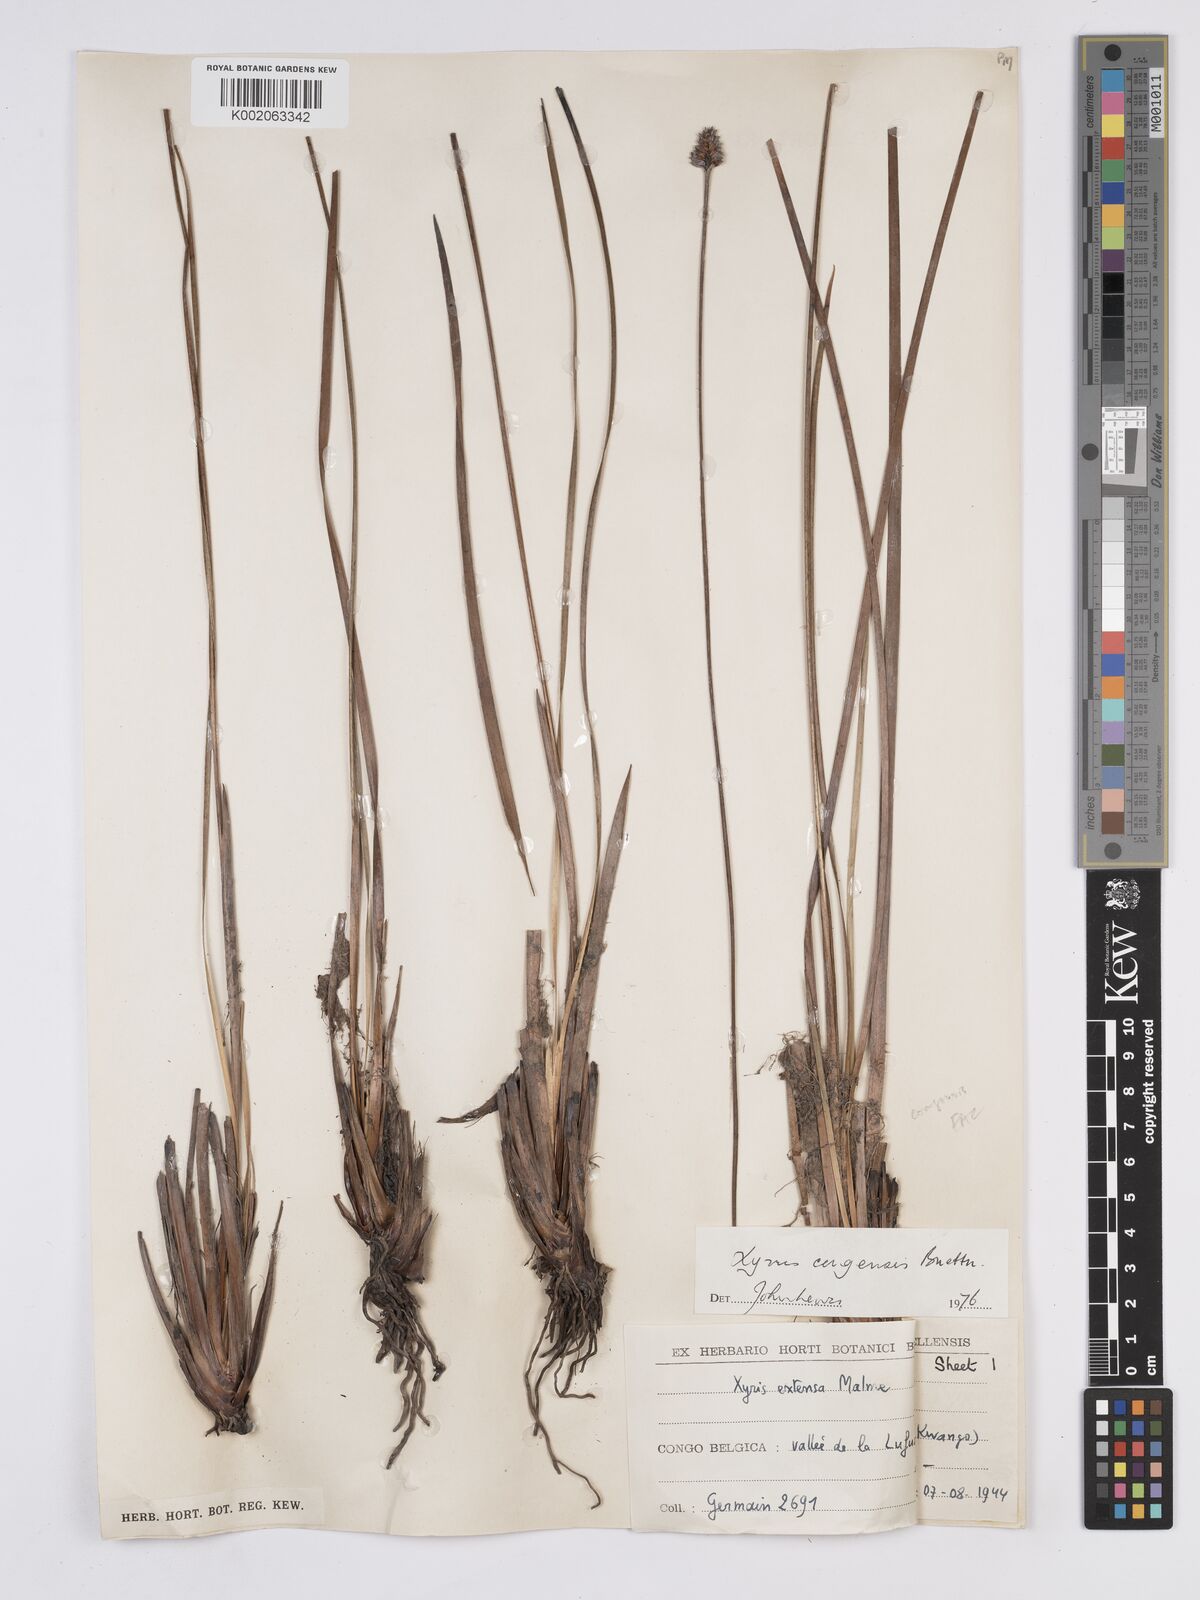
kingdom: Plantae
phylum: Tracheophyta
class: Liliopsida
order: Poales
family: Xyridaceae
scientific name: Xyridaceae
